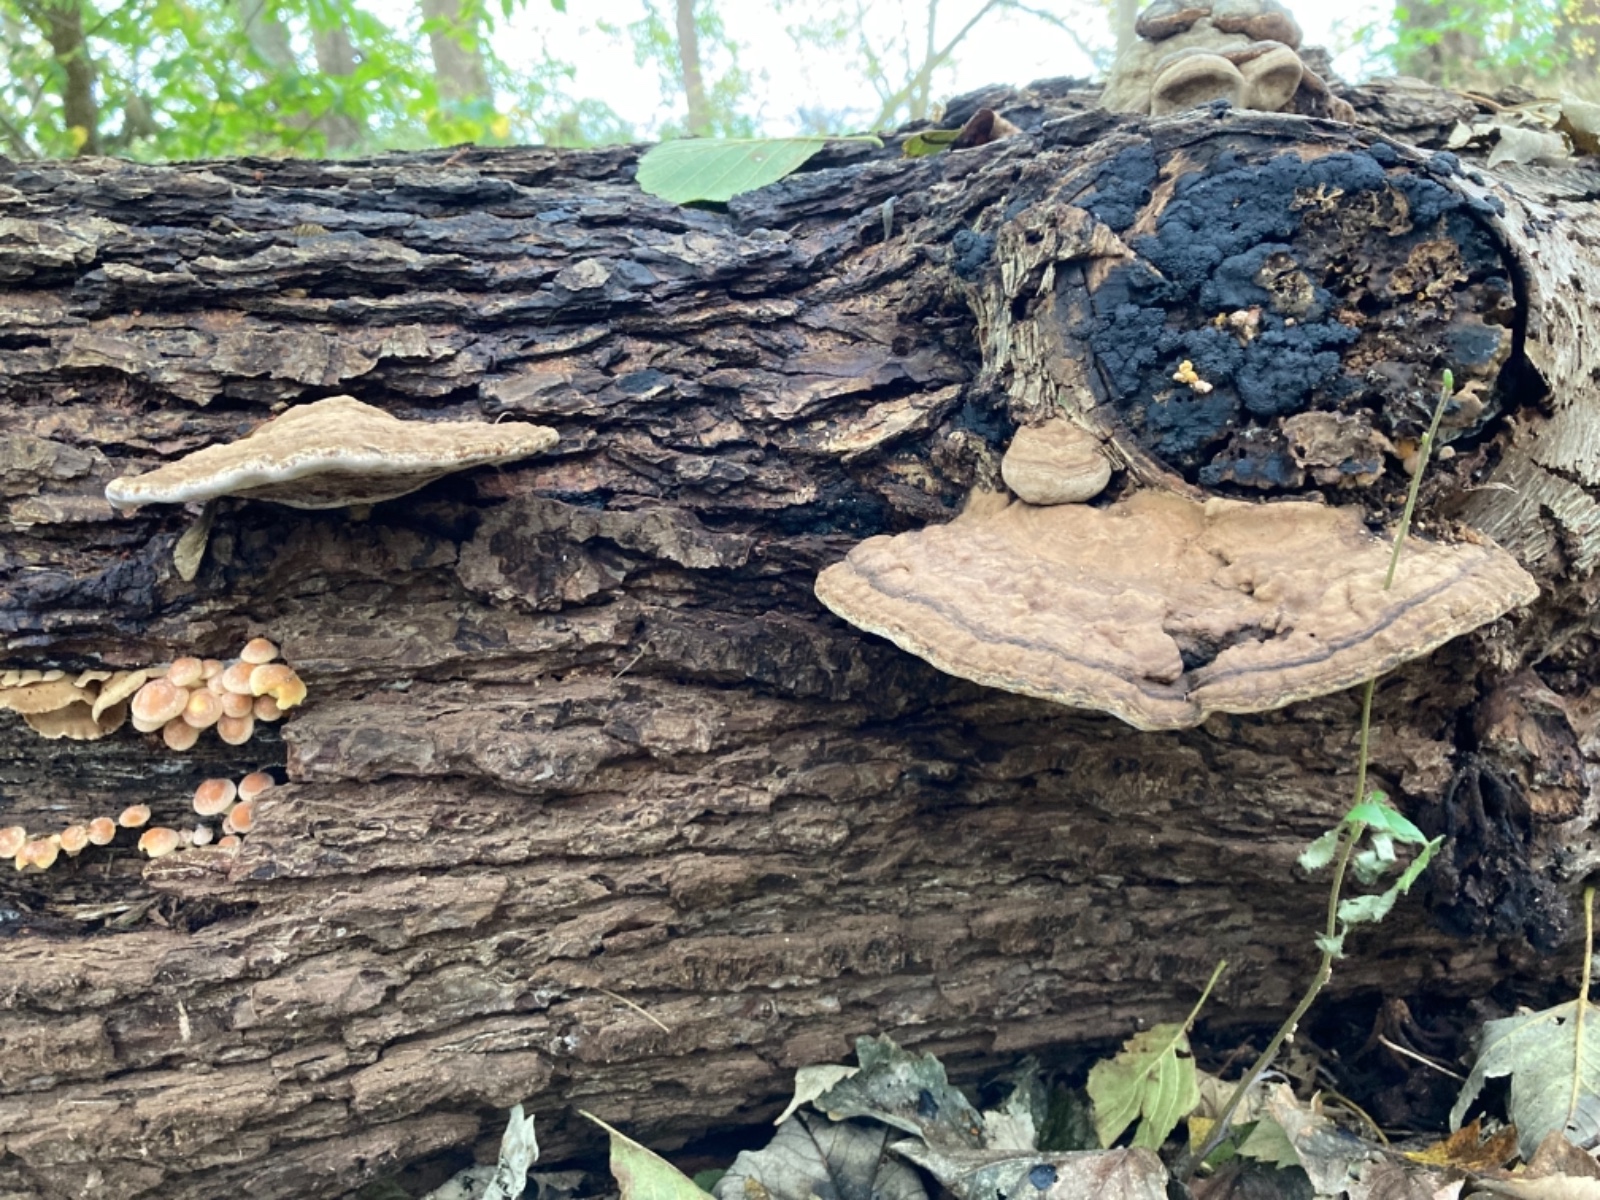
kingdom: Fungi
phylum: Basidiomycota
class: Agaricomycetes
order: Polyporales
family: Polyporaceae
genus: Ganoderma
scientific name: Ganoderma applanatum
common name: flad lakporesvamp
